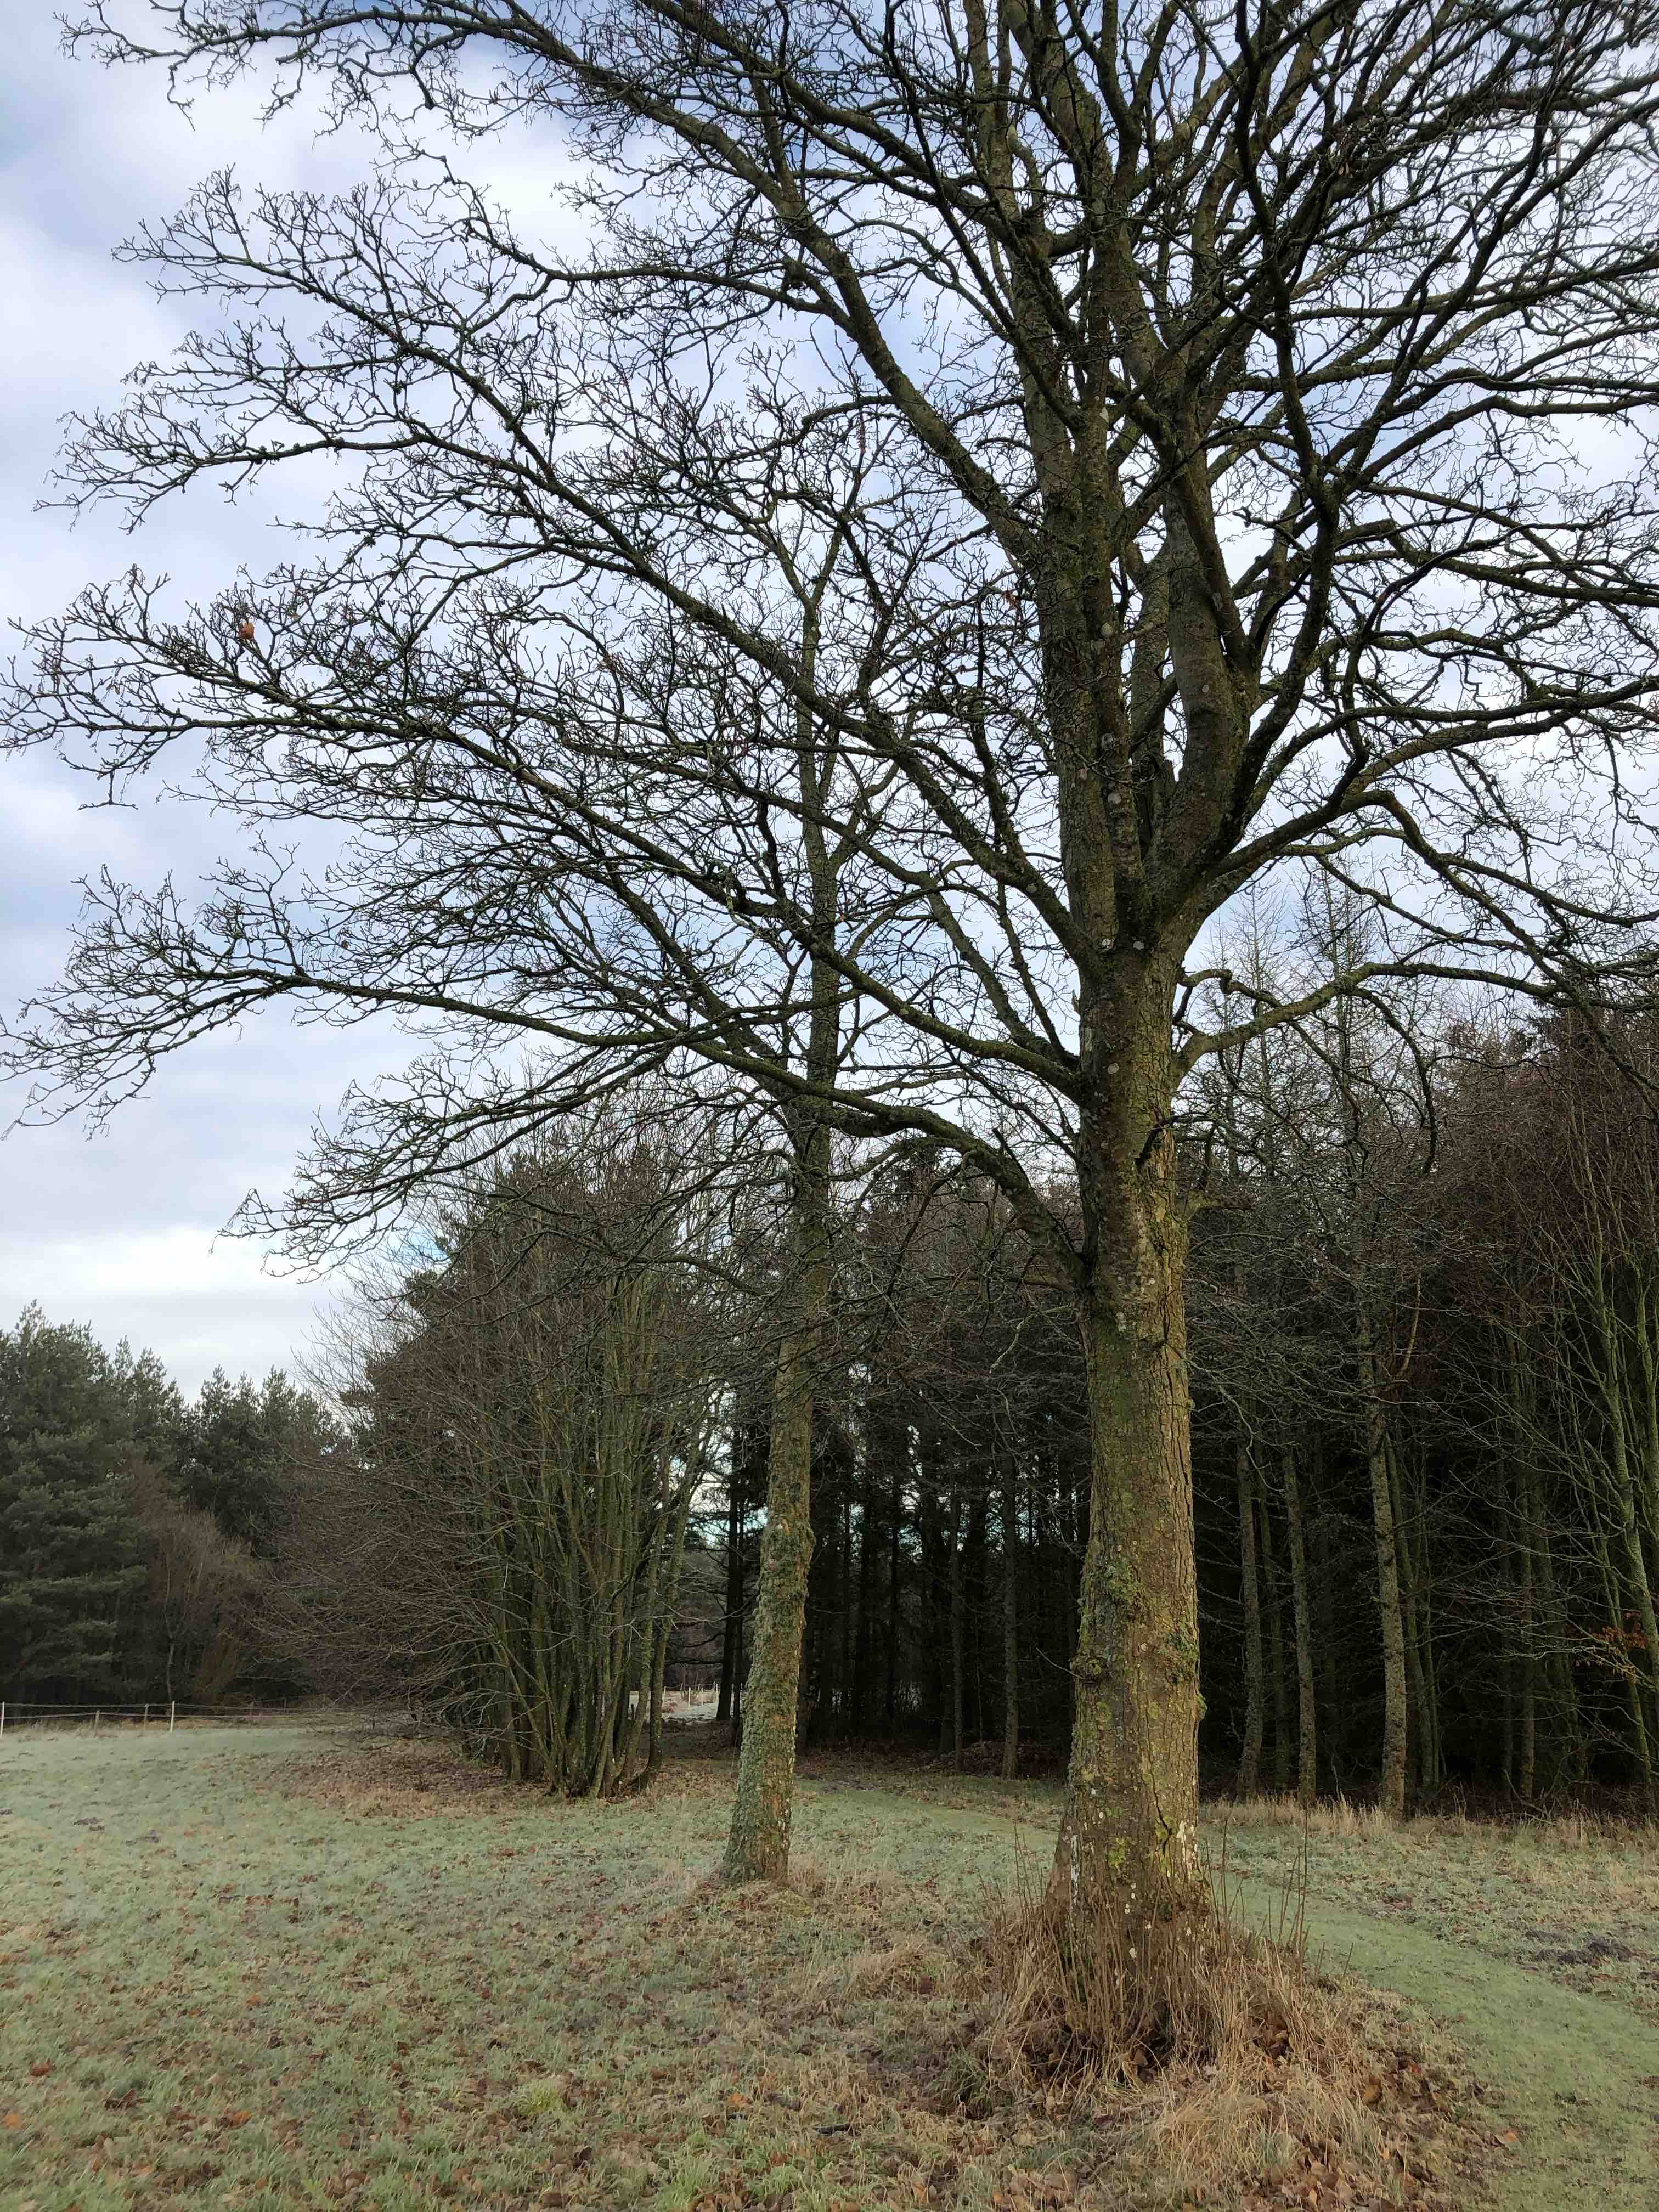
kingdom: Fungi
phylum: Ascomycota
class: Lecanoromycetes
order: Lecanorales
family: Ramalinaceae
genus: Ramalina
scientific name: Ramalina farinacea
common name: melet grenlav
